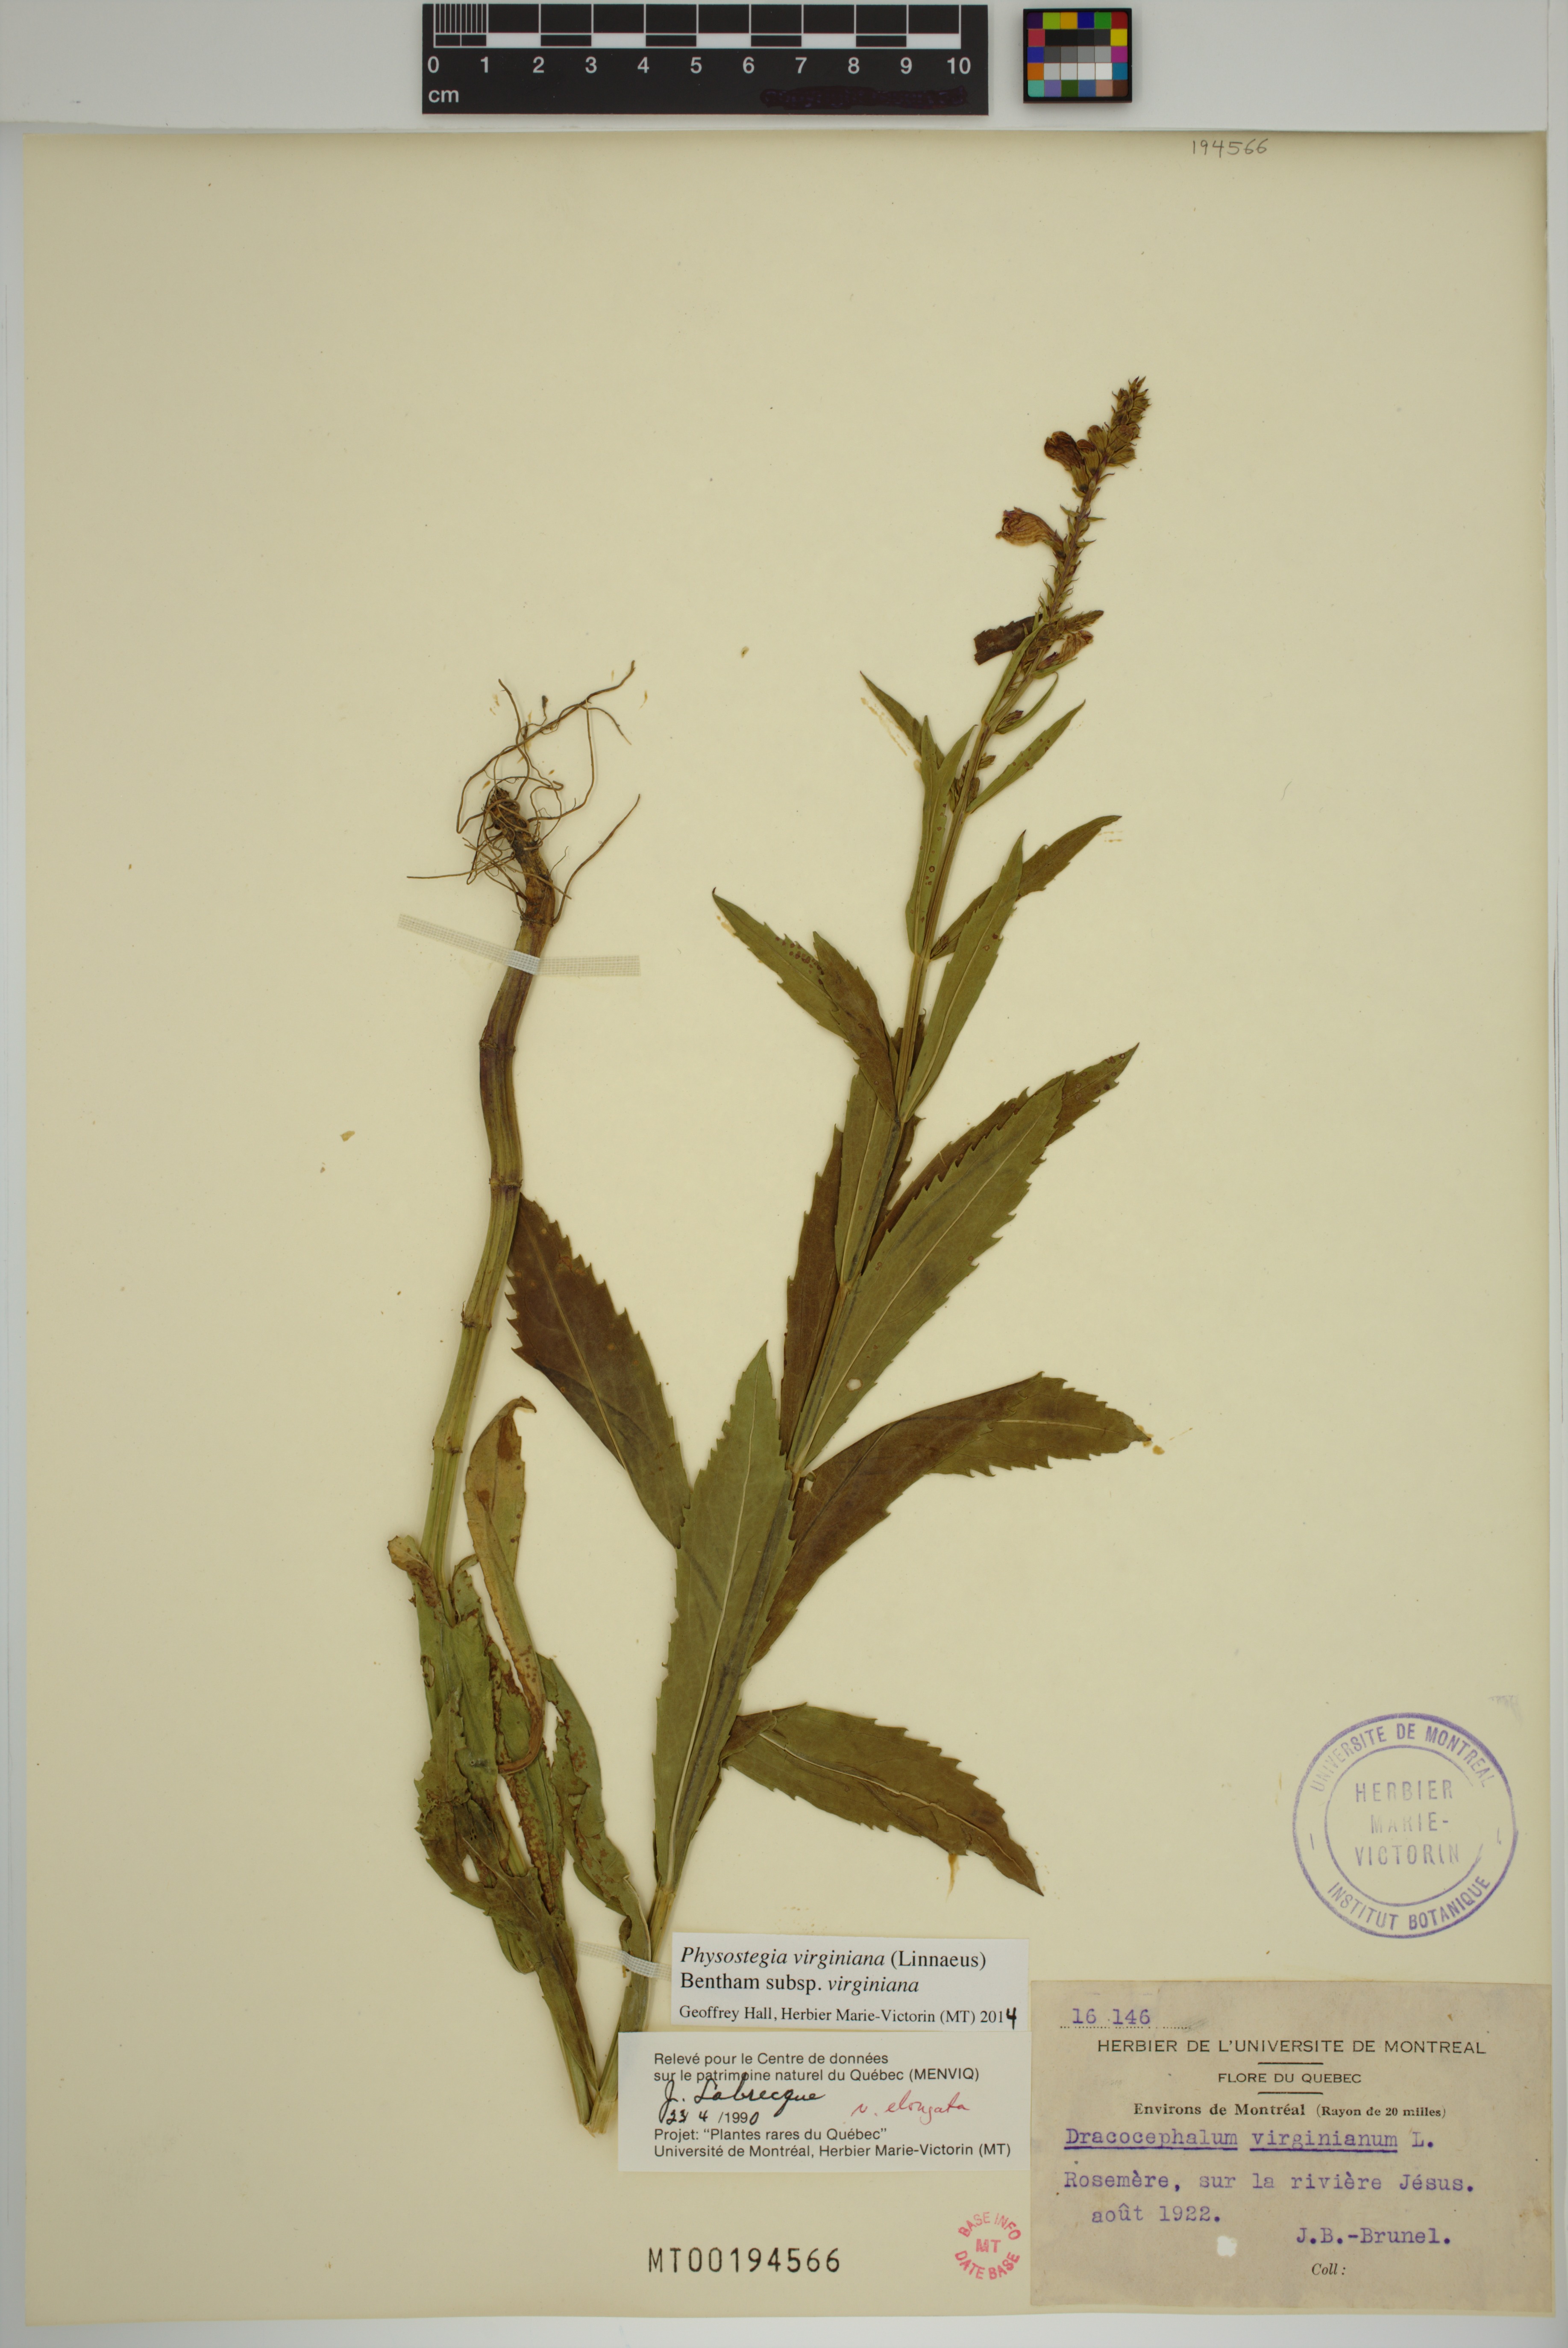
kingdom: Plantae
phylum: Tracheophyta
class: Magnoliopsida
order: Lamiales
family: Lamiaceae
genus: Physostegia
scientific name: Physostegia virginiana
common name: Obedient-plant
